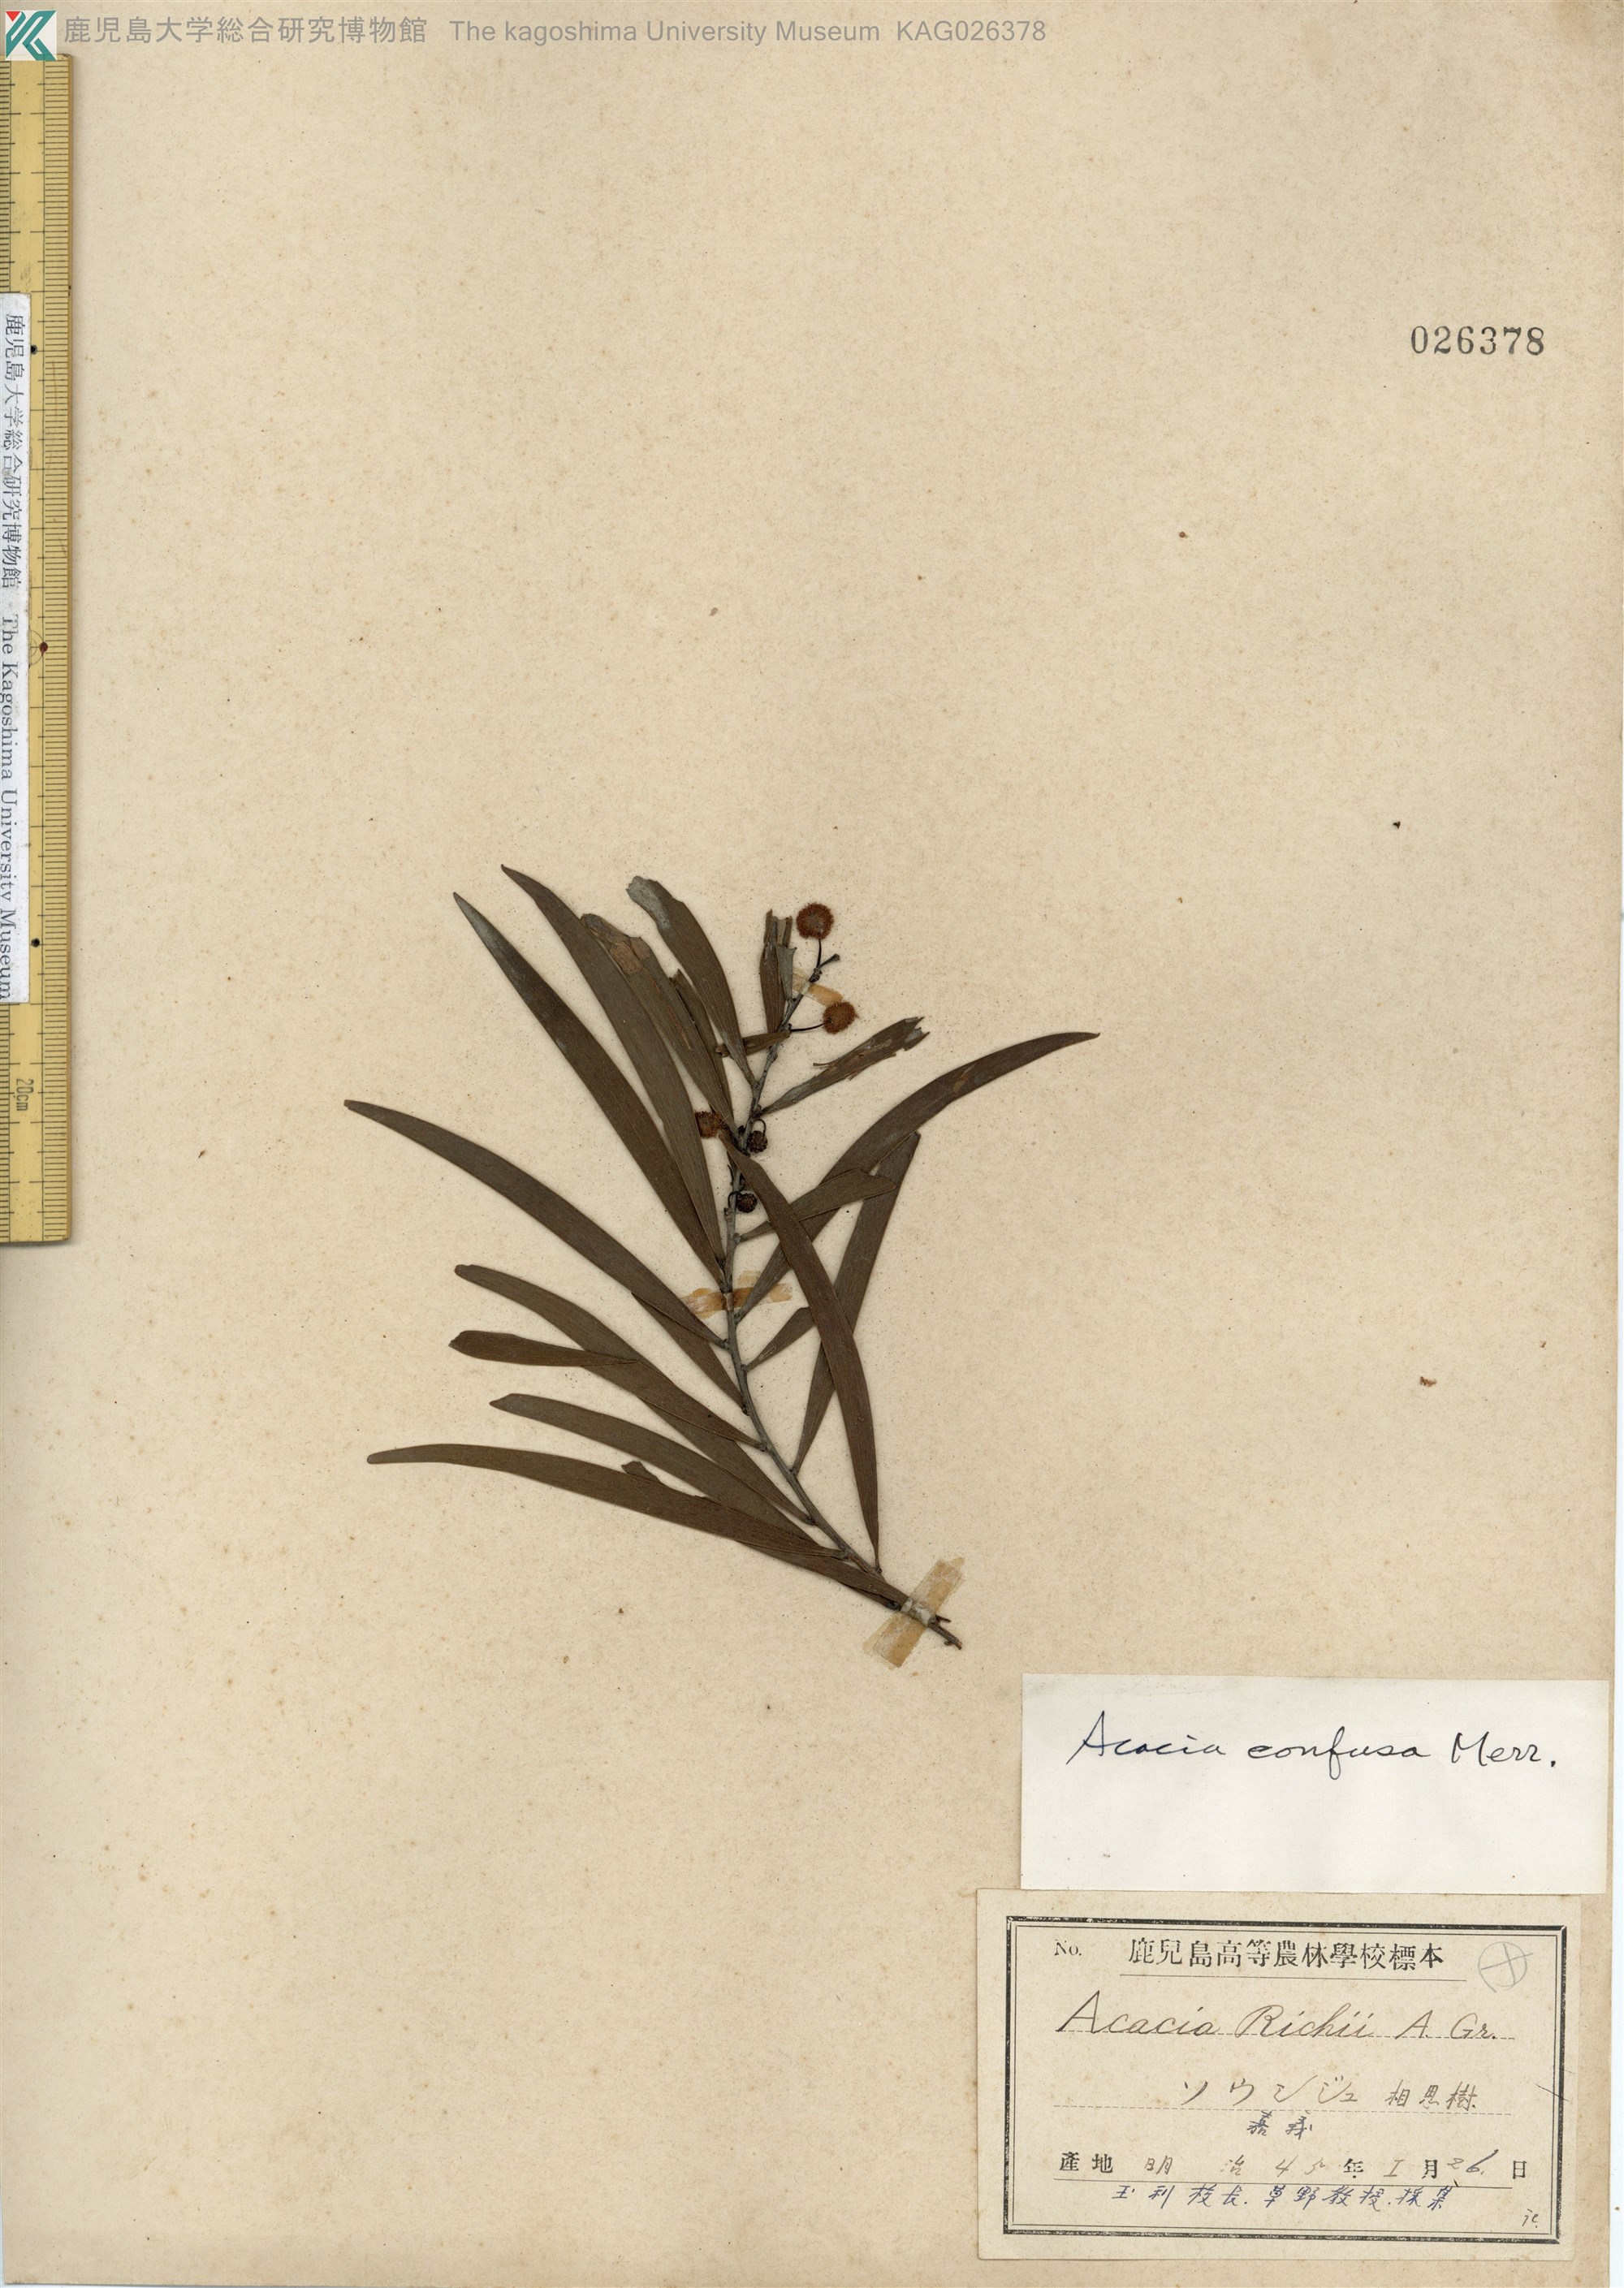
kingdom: Plantae
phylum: Tracheophyta
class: Magnoliopsida
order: Fabales
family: Fabaceae
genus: Acacia
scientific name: Acacia confusa
